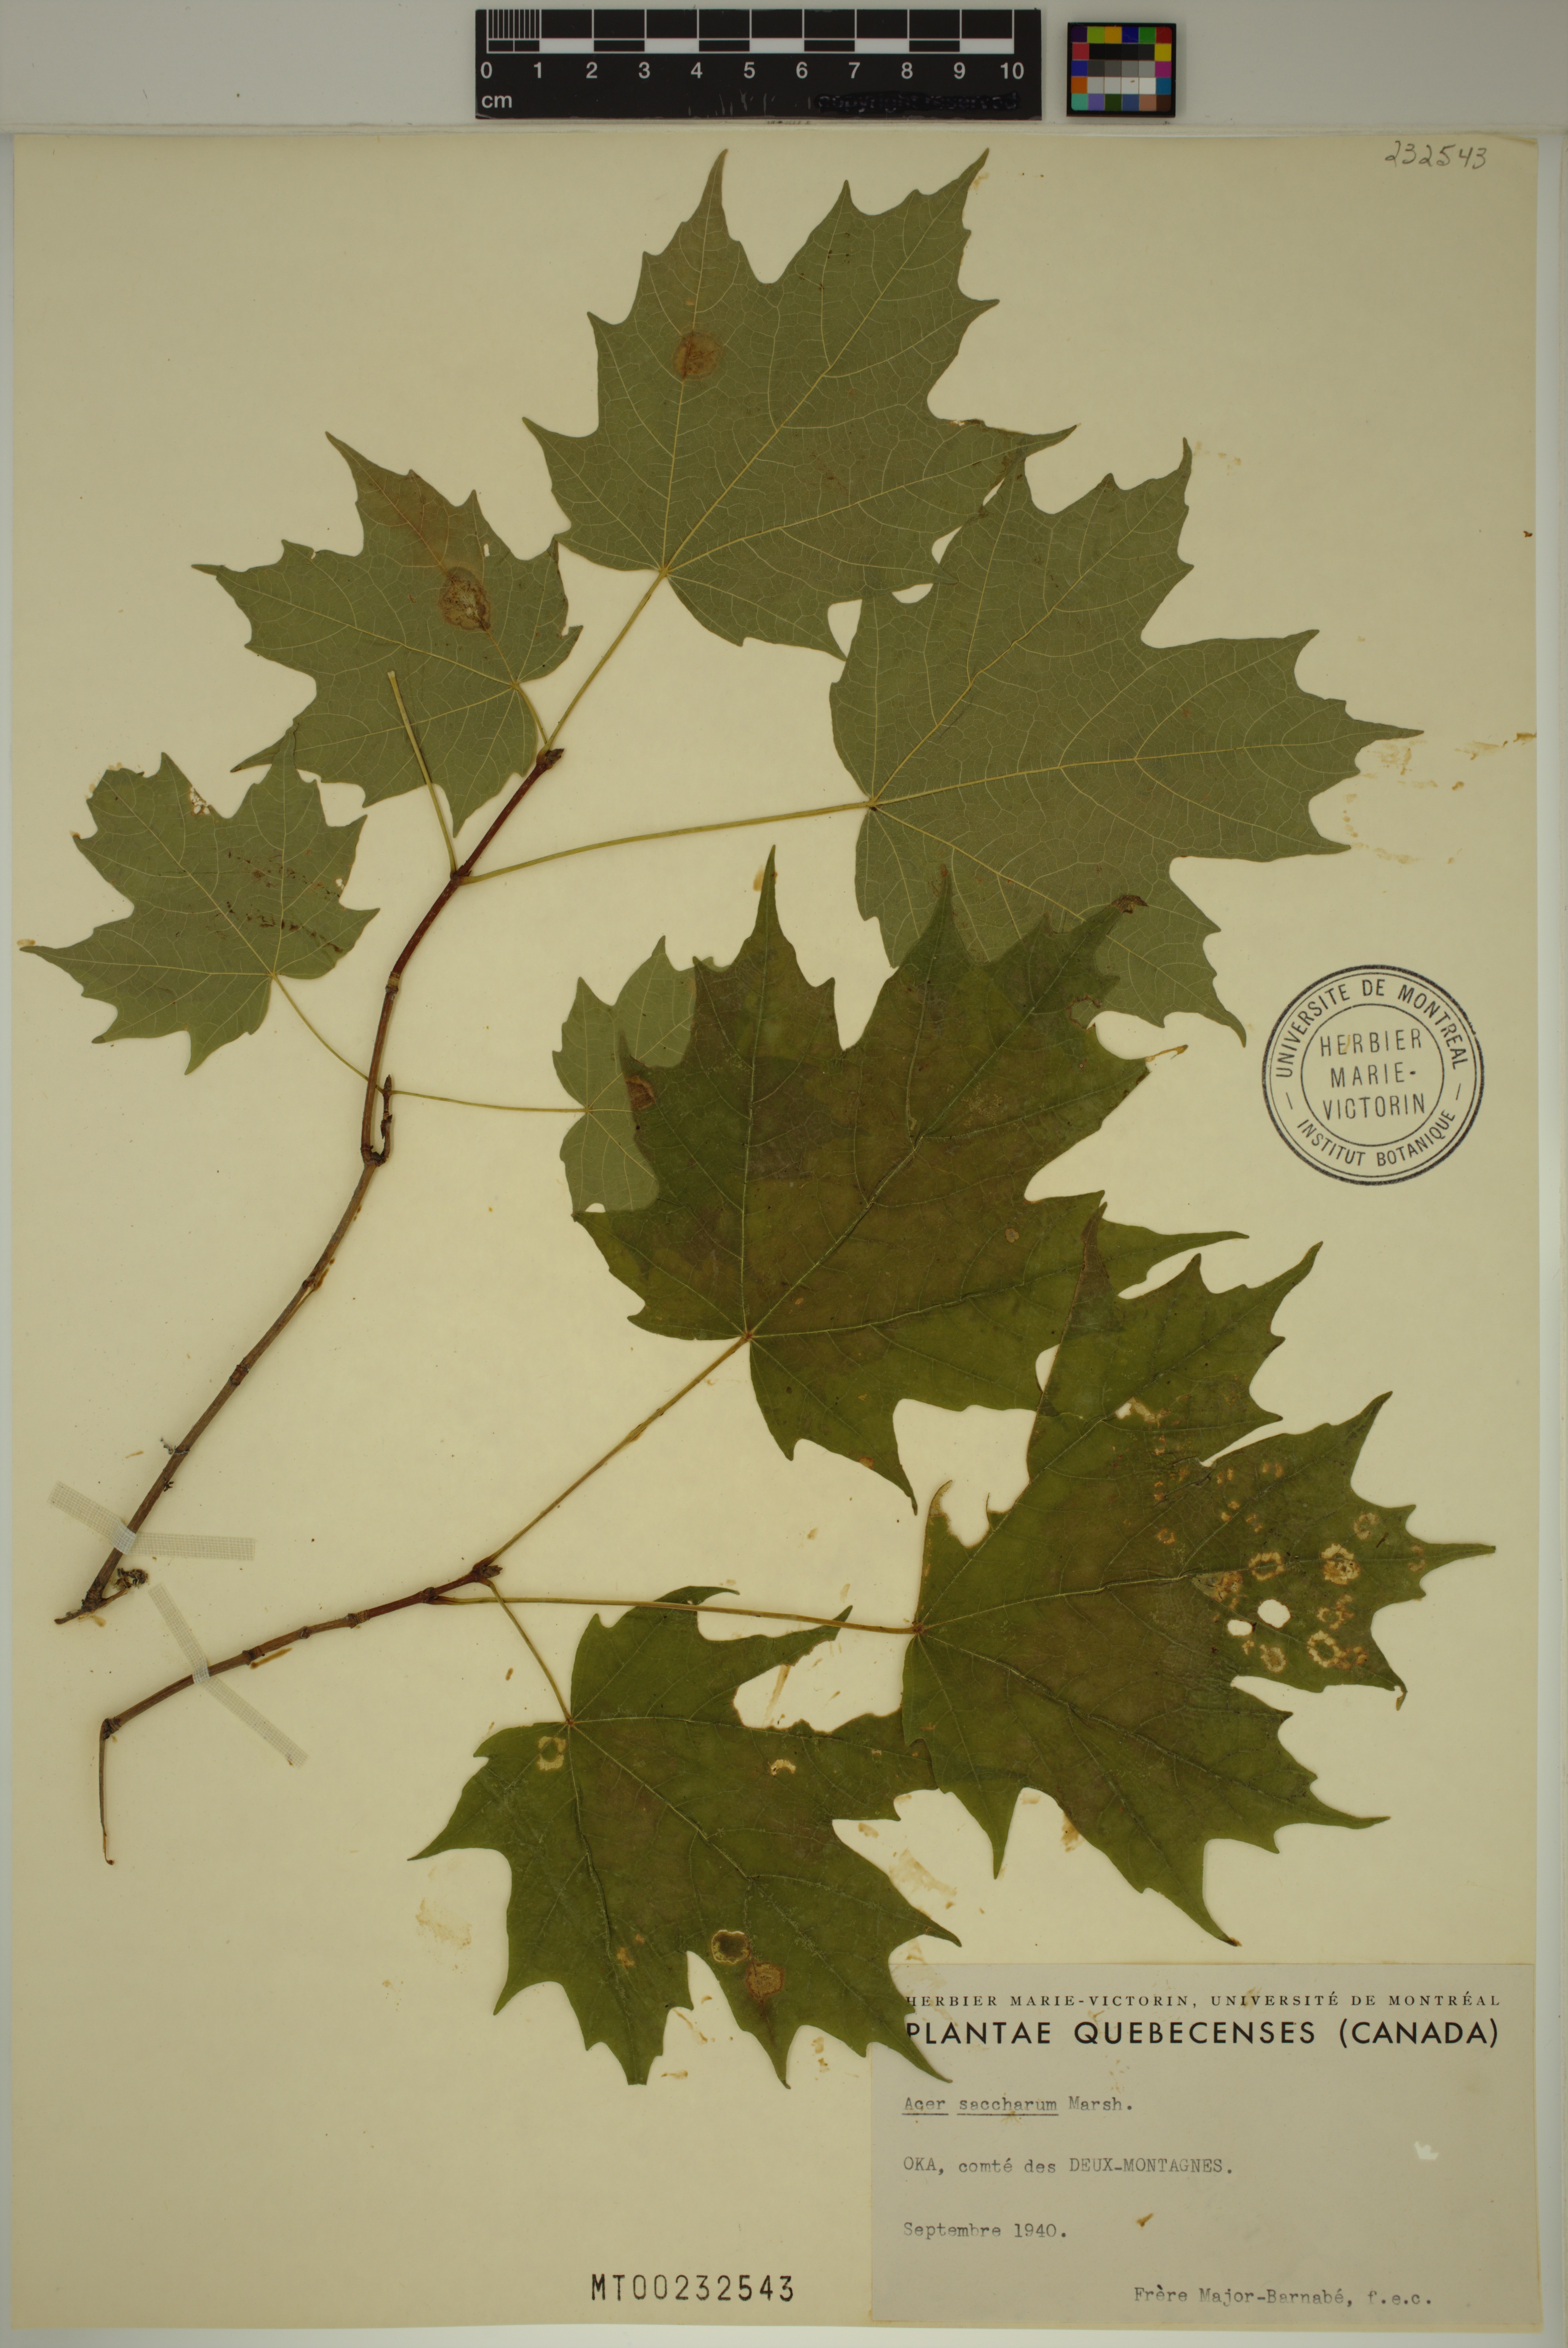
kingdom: Plantae
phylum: Tracheophyta
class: Magnoliopsida
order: Sapindales
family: Sapindaceae
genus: Acer
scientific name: Acer saccharum
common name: Sugar maple
